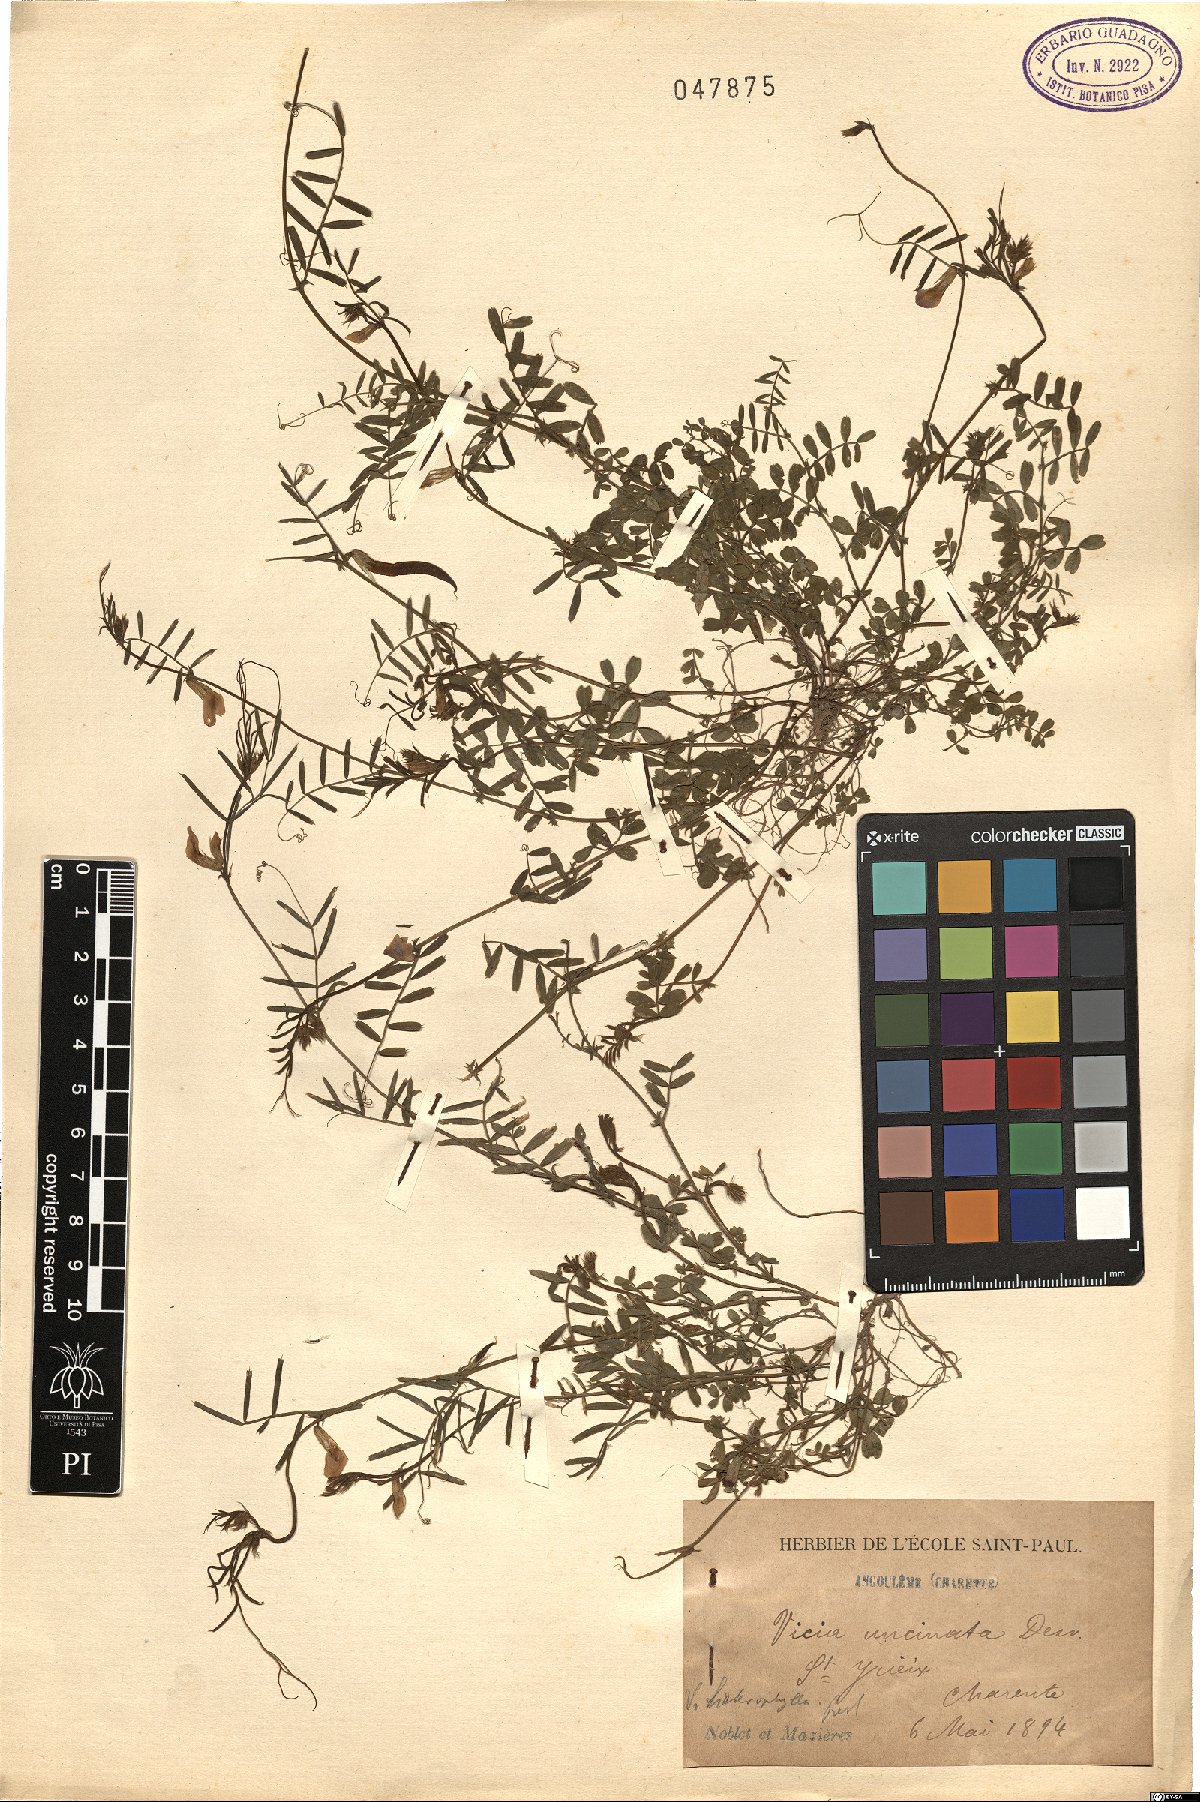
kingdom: Plantae
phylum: Tracheophyta
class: Magnoliopsida
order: Fabales
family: Fabaceae
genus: Vicia
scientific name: Vicia pannonica
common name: Hungarian vetch
